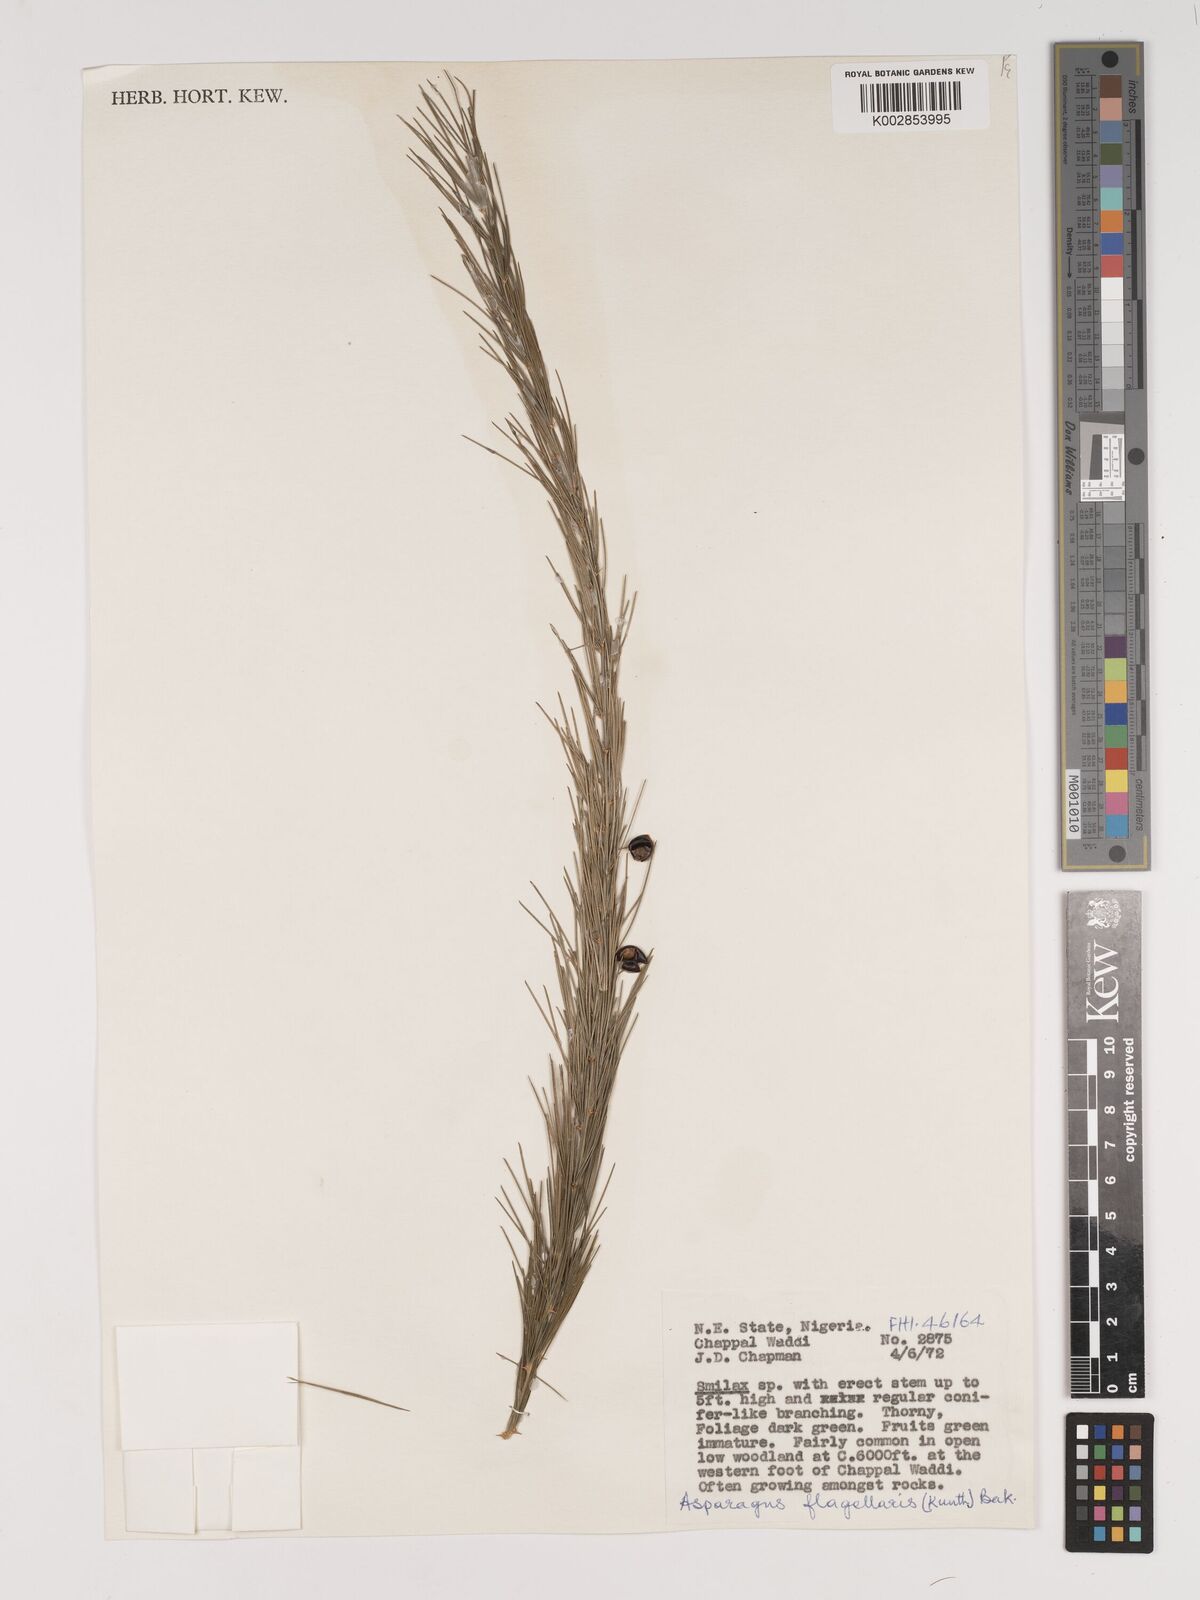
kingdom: Plantae
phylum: Tracheophyta
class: Liliopsida
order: Asparagales
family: Asparagaceae
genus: Asparagus
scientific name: Asparagus flagellaris
